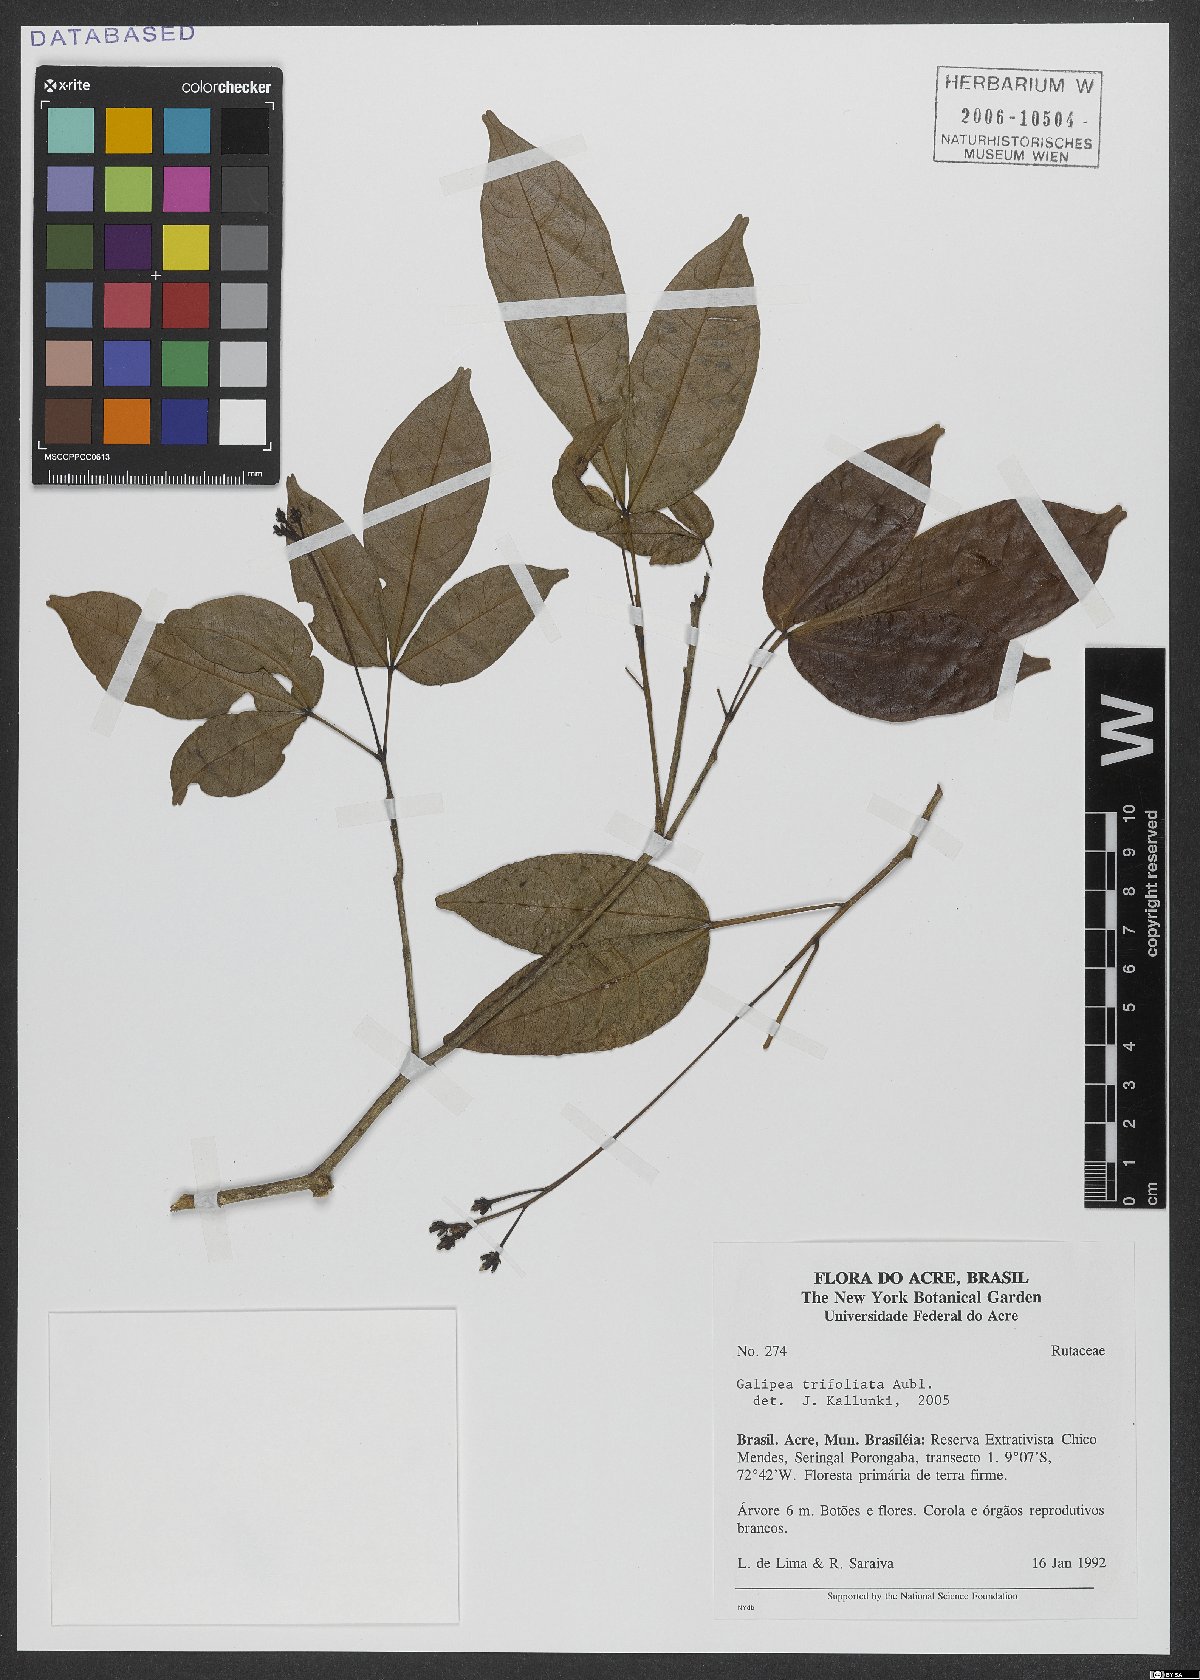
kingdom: Plantae
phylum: Tracheophyta
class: Magnoliopsida
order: Sapindales
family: Rutaceae
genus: Galipea
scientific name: Galipea trifoliata
